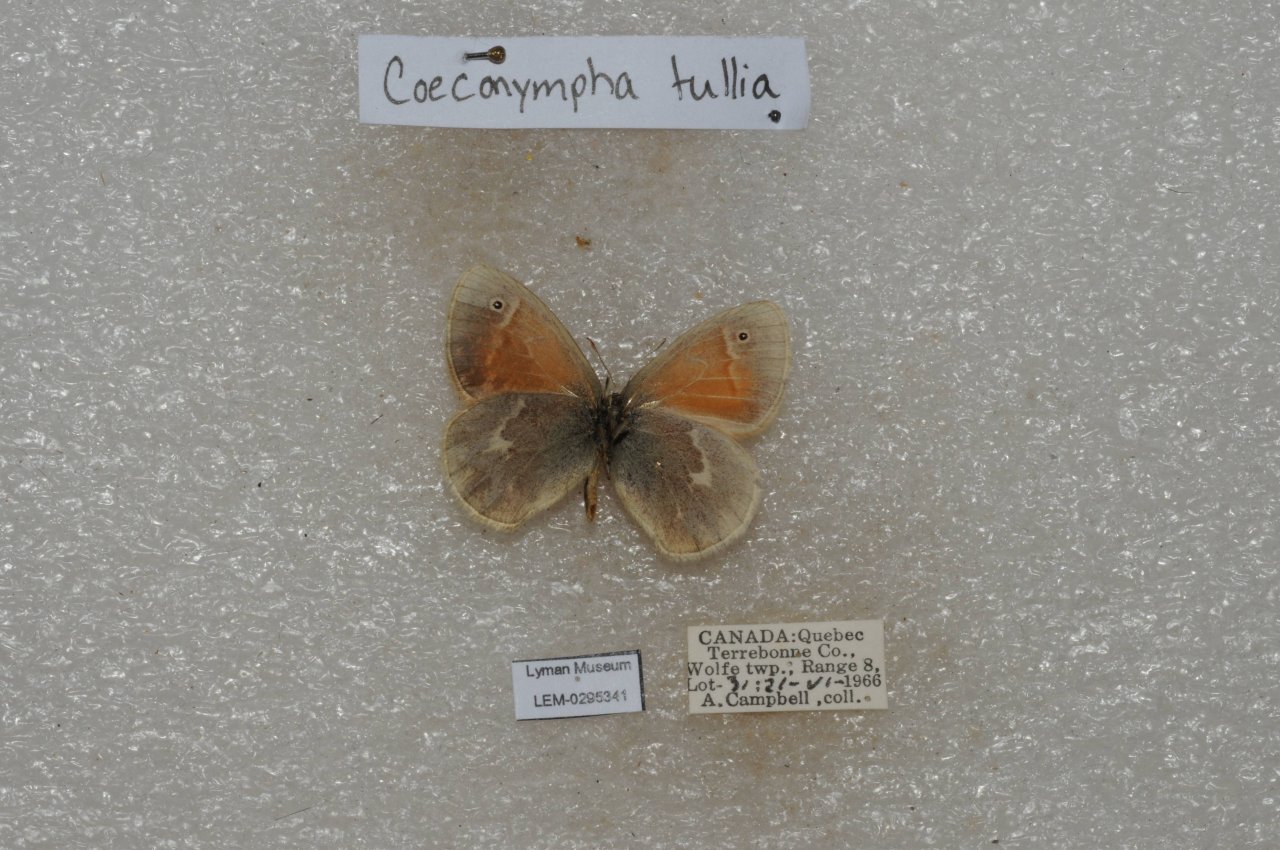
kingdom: Animalia
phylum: Arthropoda
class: Insecta
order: Lepidoptera
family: Nymphalidae
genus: Coenonympha
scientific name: Coenonympha tullia
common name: Large Heath
